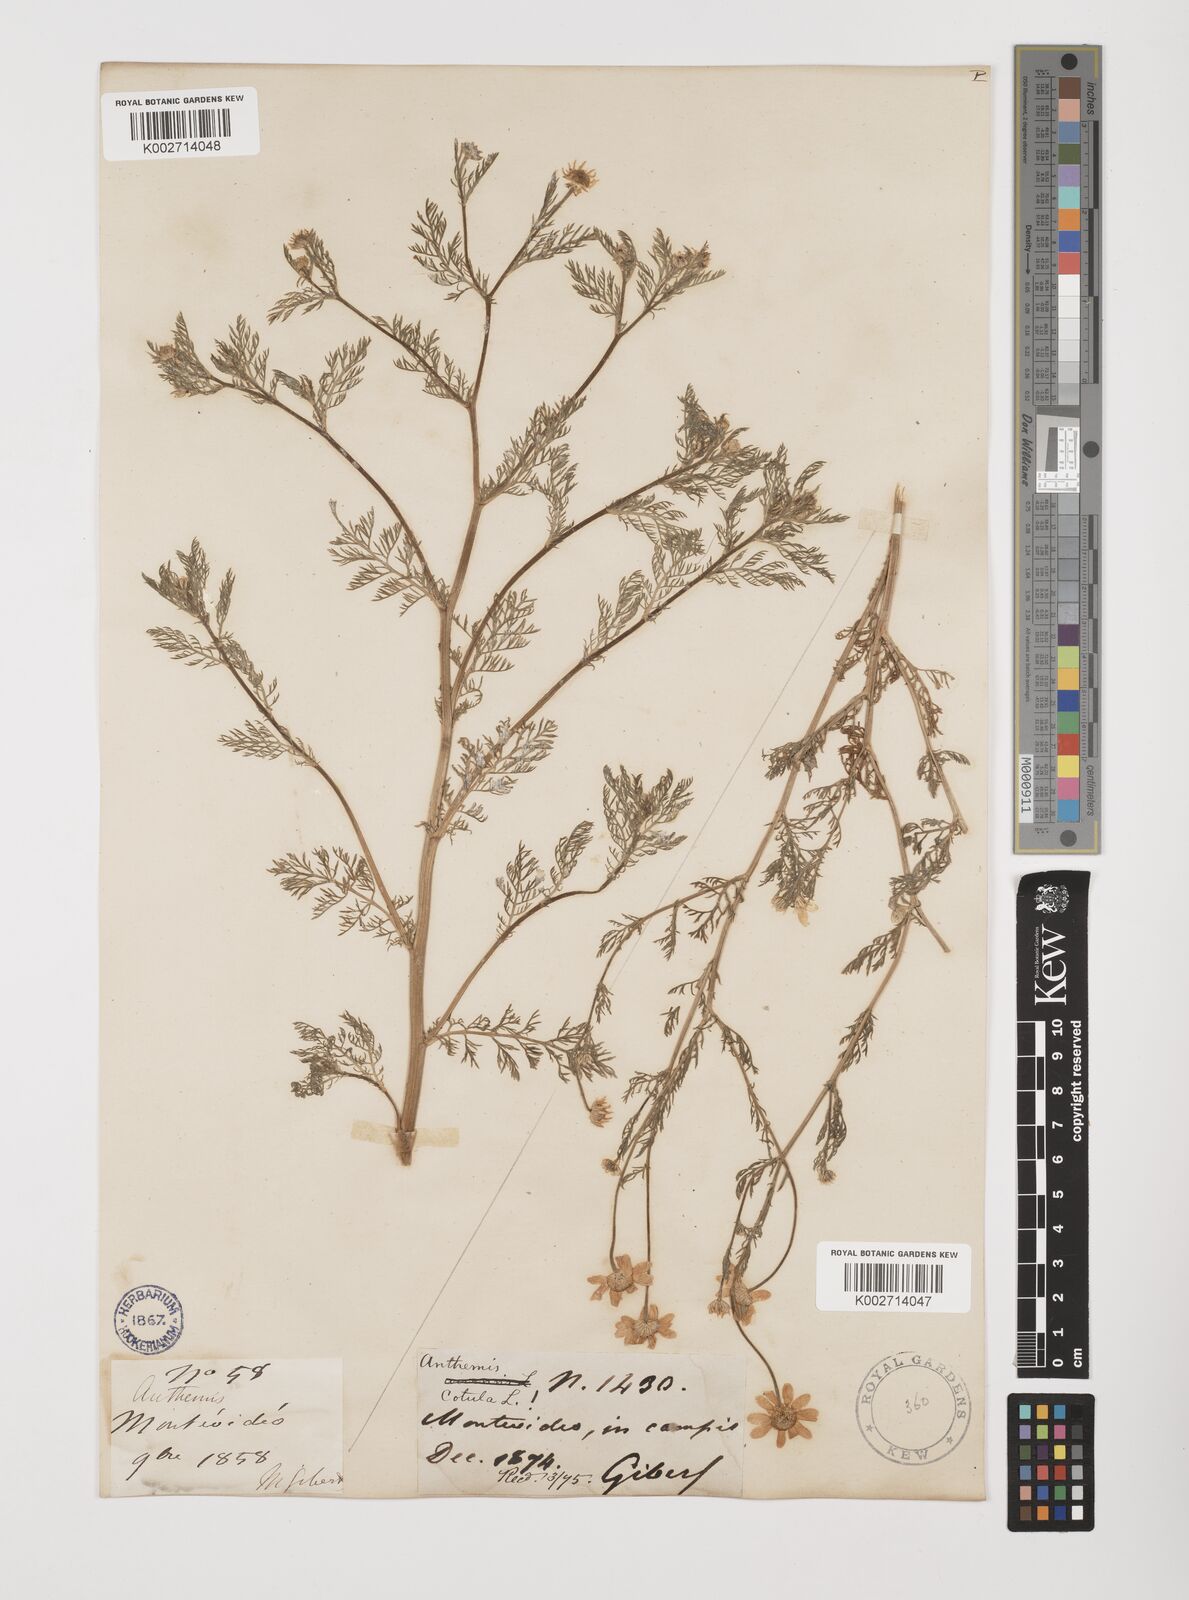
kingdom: Plantae
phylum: Tracheophyta
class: Magnoliopsida
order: Asterales
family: Asteraceae
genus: Anthemis
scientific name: Anthemis cotula
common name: Stinking chamomile
